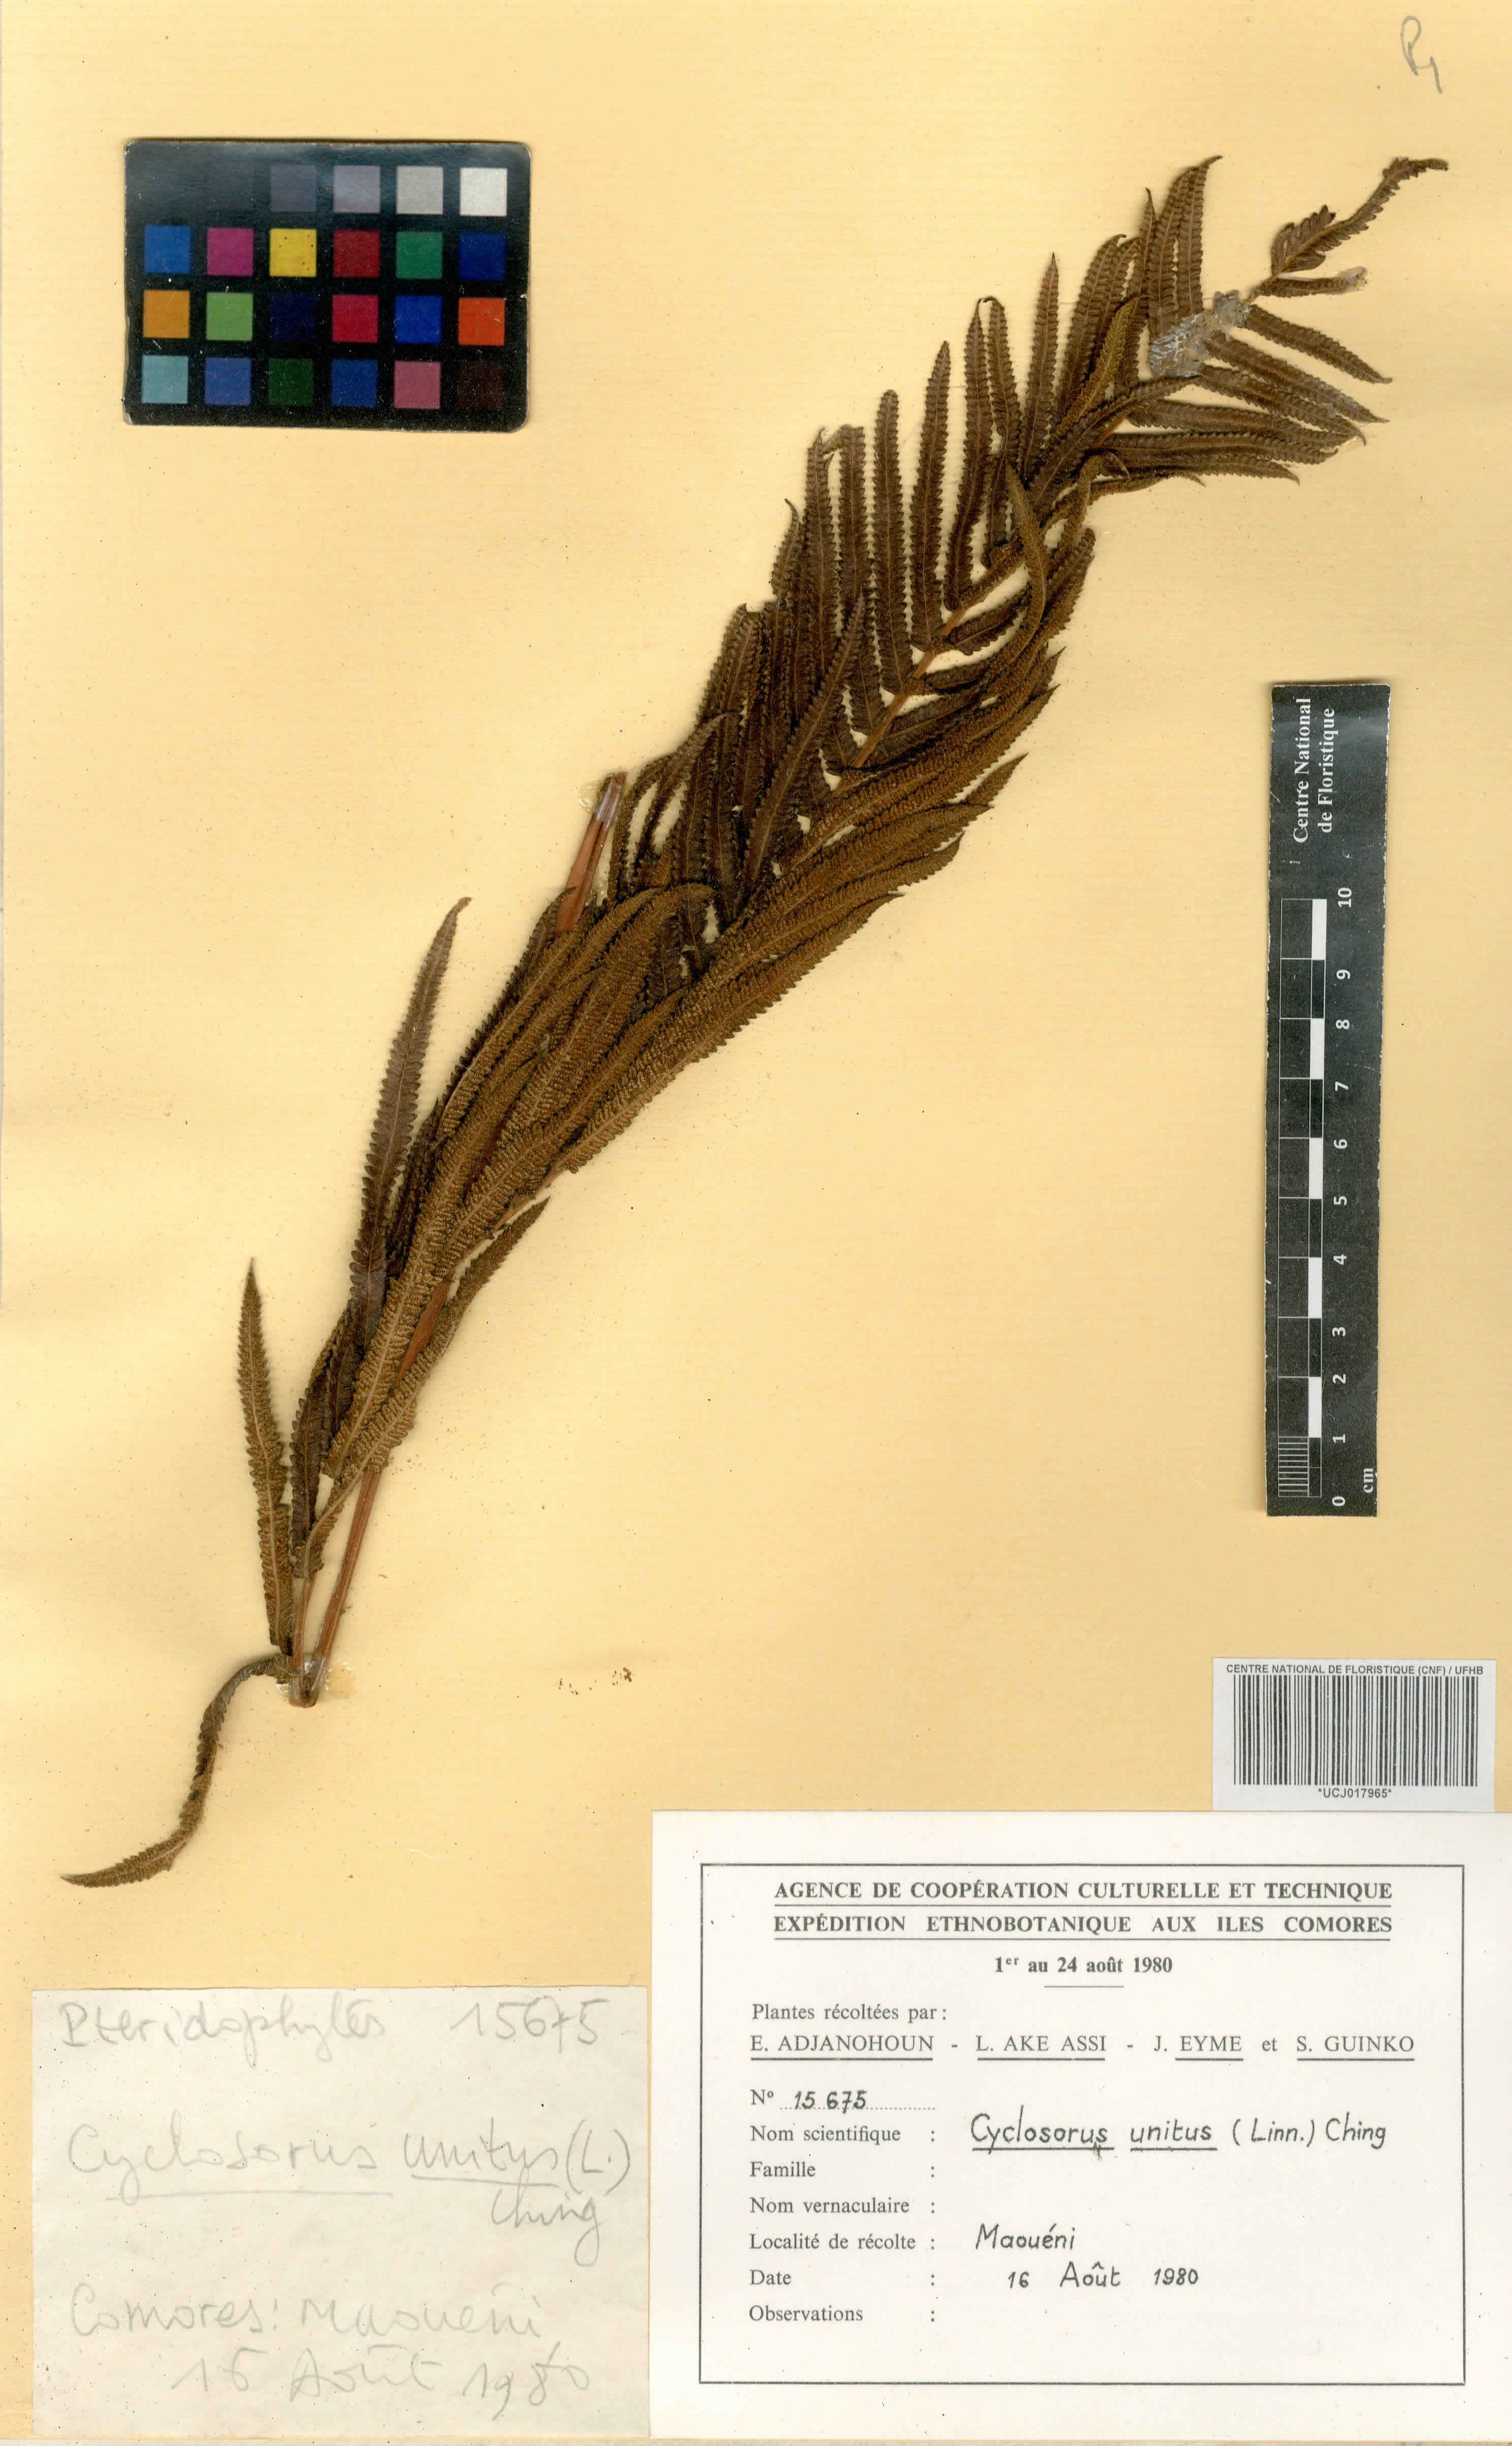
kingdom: Plantae
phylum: Tracheophyta
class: Polypodiopsida
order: Polypodiales
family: Thelypteridaceae
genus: Strophocaulon
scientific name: Strophocaulon unitum
